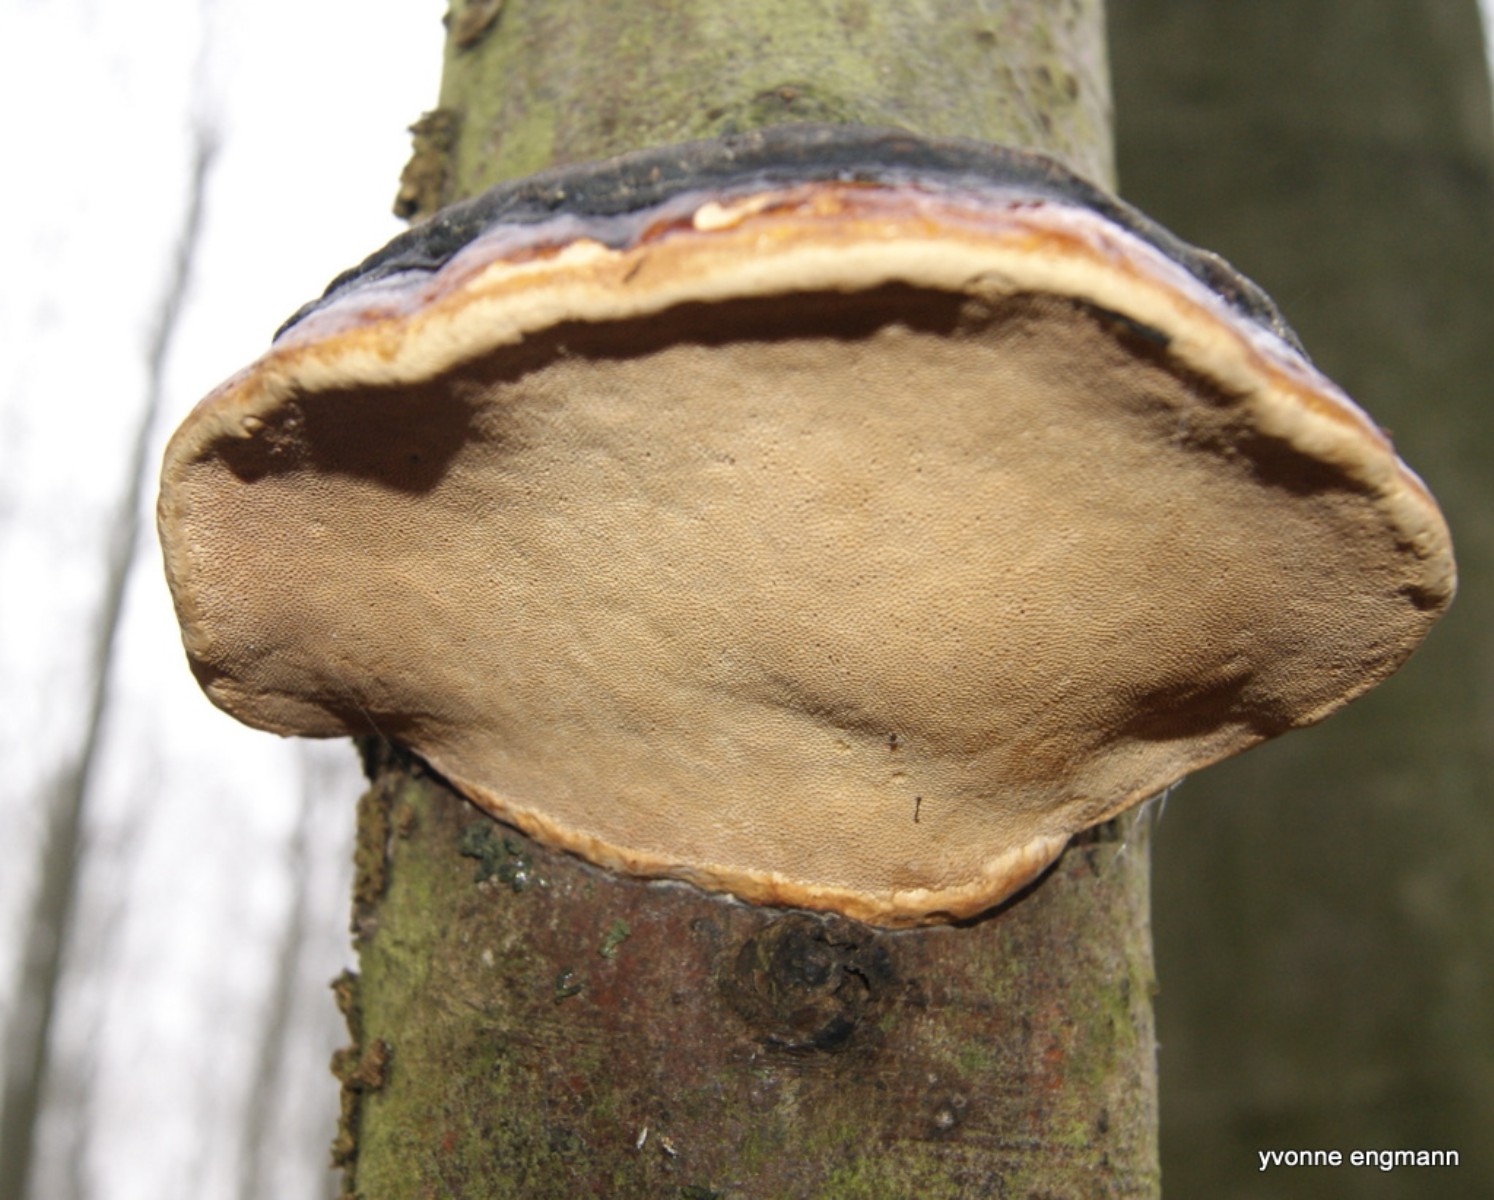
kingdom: Fungi
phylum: Basidiomycota
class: Agaricomycetes
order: Polyporales
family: Polyporaceae
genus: Fomes
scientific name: Fomes fomentarius
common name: tøndersvamp
